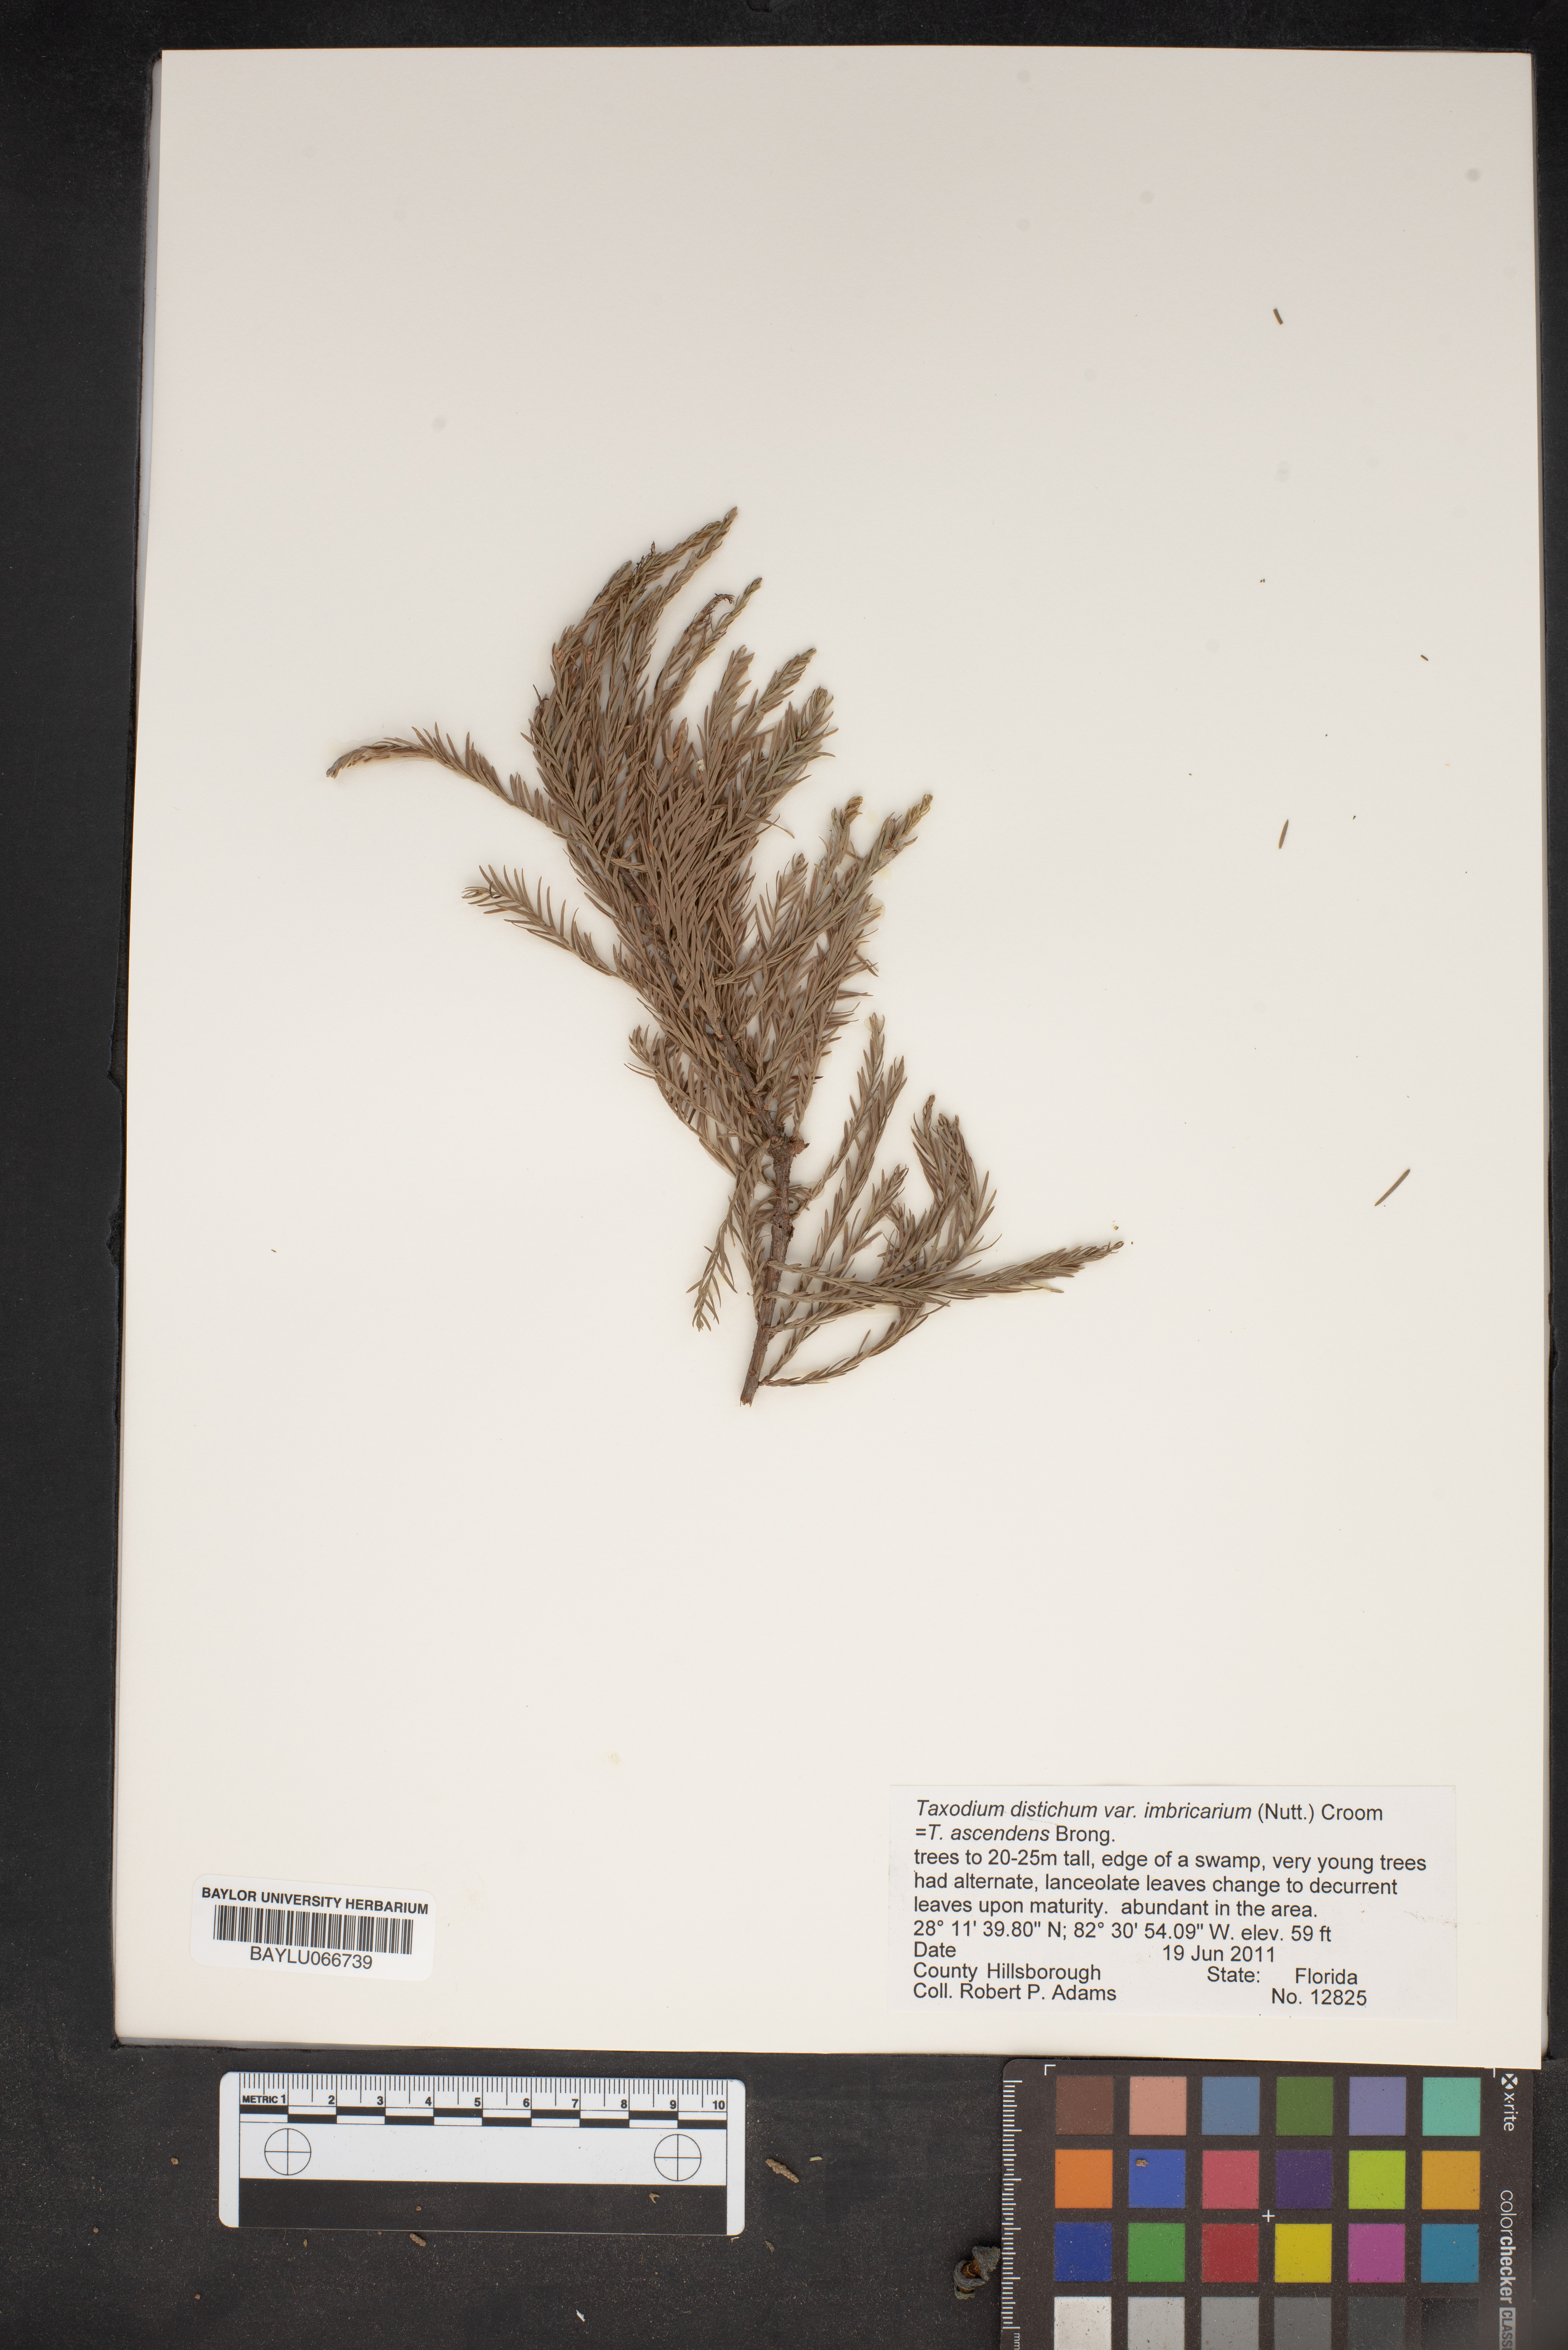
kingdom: Plantae
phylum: Tracheophyta
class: Pinopsida
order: Pinales
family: Cupressaceae
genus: Taxodium
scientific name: Taxodium distichum
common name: Bald cypress
